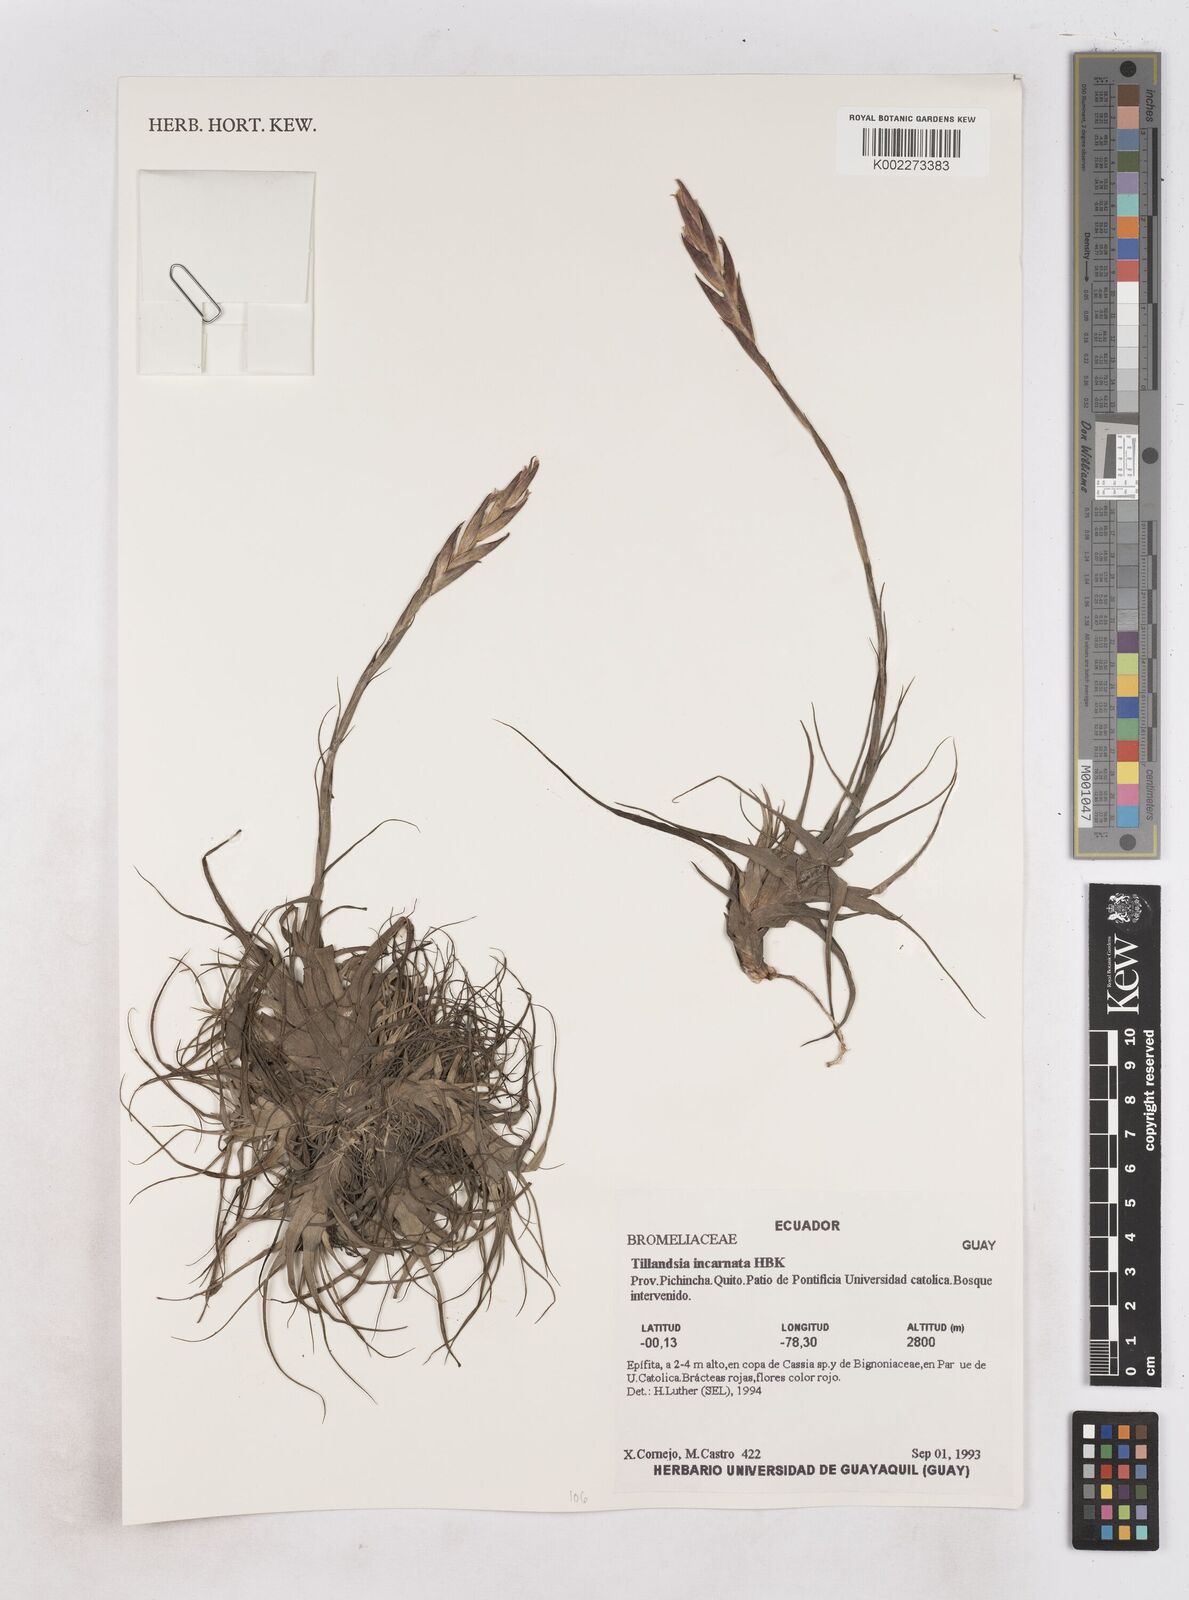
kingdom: Plantae
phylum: Tracheophyta
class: Liliopsida
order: Poales
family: Bromeliaceae
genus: Tillandsia
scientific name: Tillandsia incarnata
